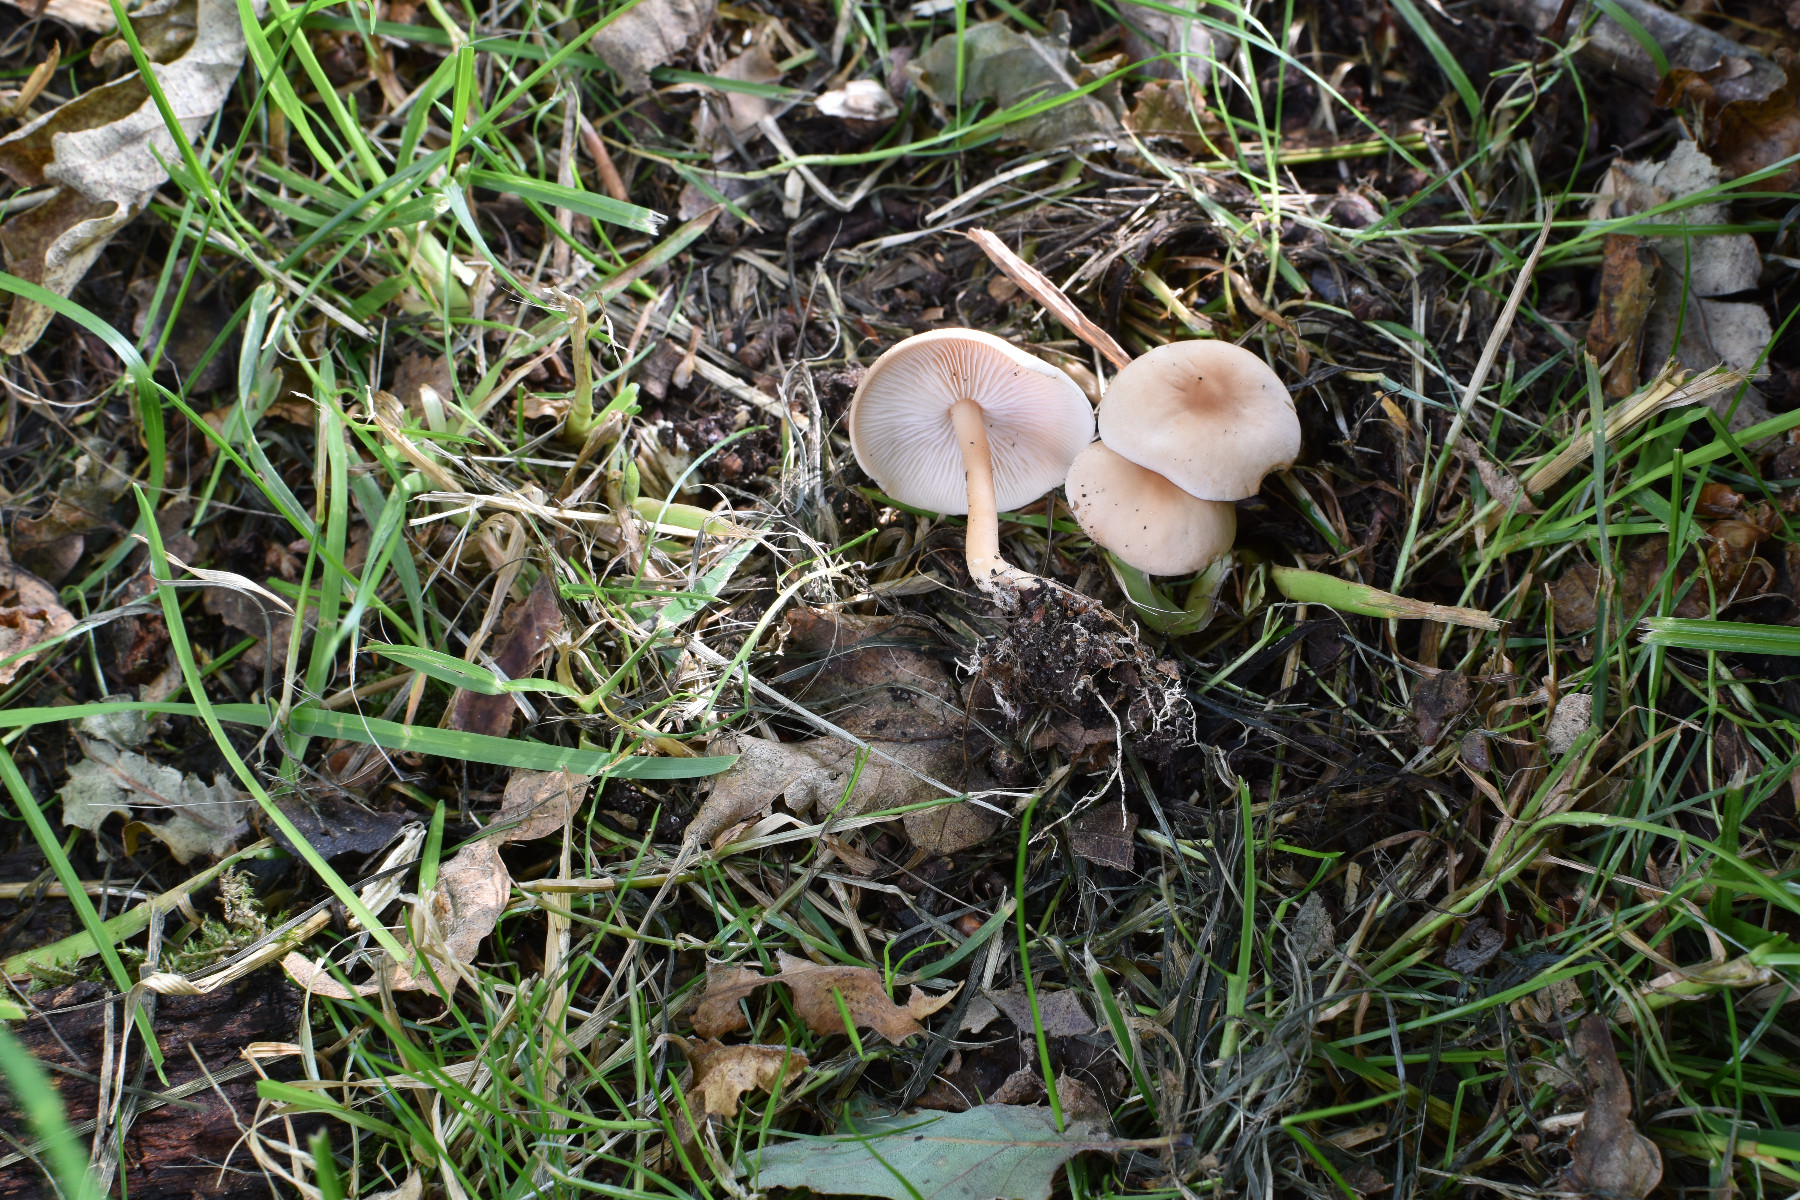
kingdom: Fungi
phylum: Basidiomycota
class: Agaricomycetes
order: Agaricales
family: Omphalotaceae
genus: Gymnopus
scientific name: Gymnopus dryophilus
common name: løv-fladhat
